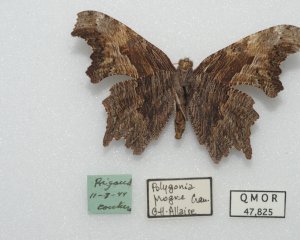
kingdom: Animalia
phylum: Arthropoda
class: Insecta
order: Lepidoptera
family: Nymphalidae
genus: Polygonia
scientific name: Polygonia progne
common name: Gray Comma
